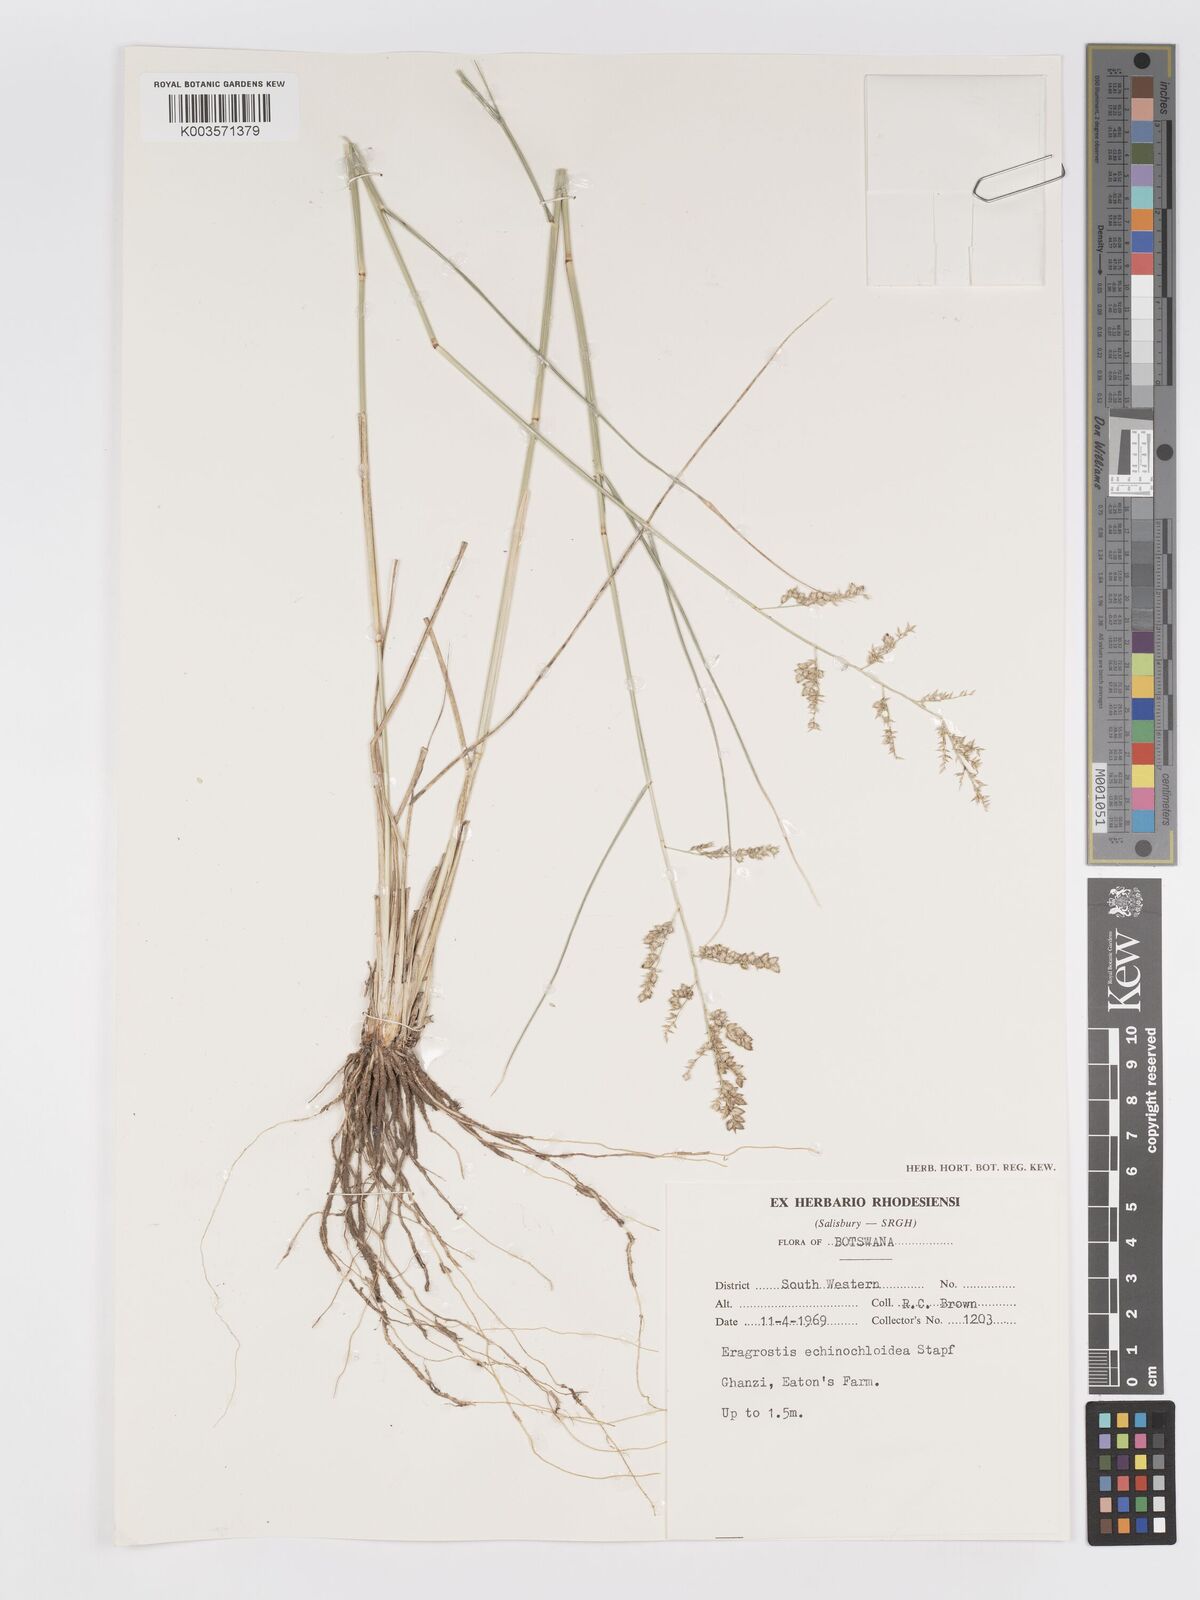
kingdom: Plantae
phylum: Tracheophyta
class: Liliopsida
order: Poales
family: Poaceae
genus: Eragrostis
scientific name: Eragrostis echinochloidea
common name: African lovegrass
